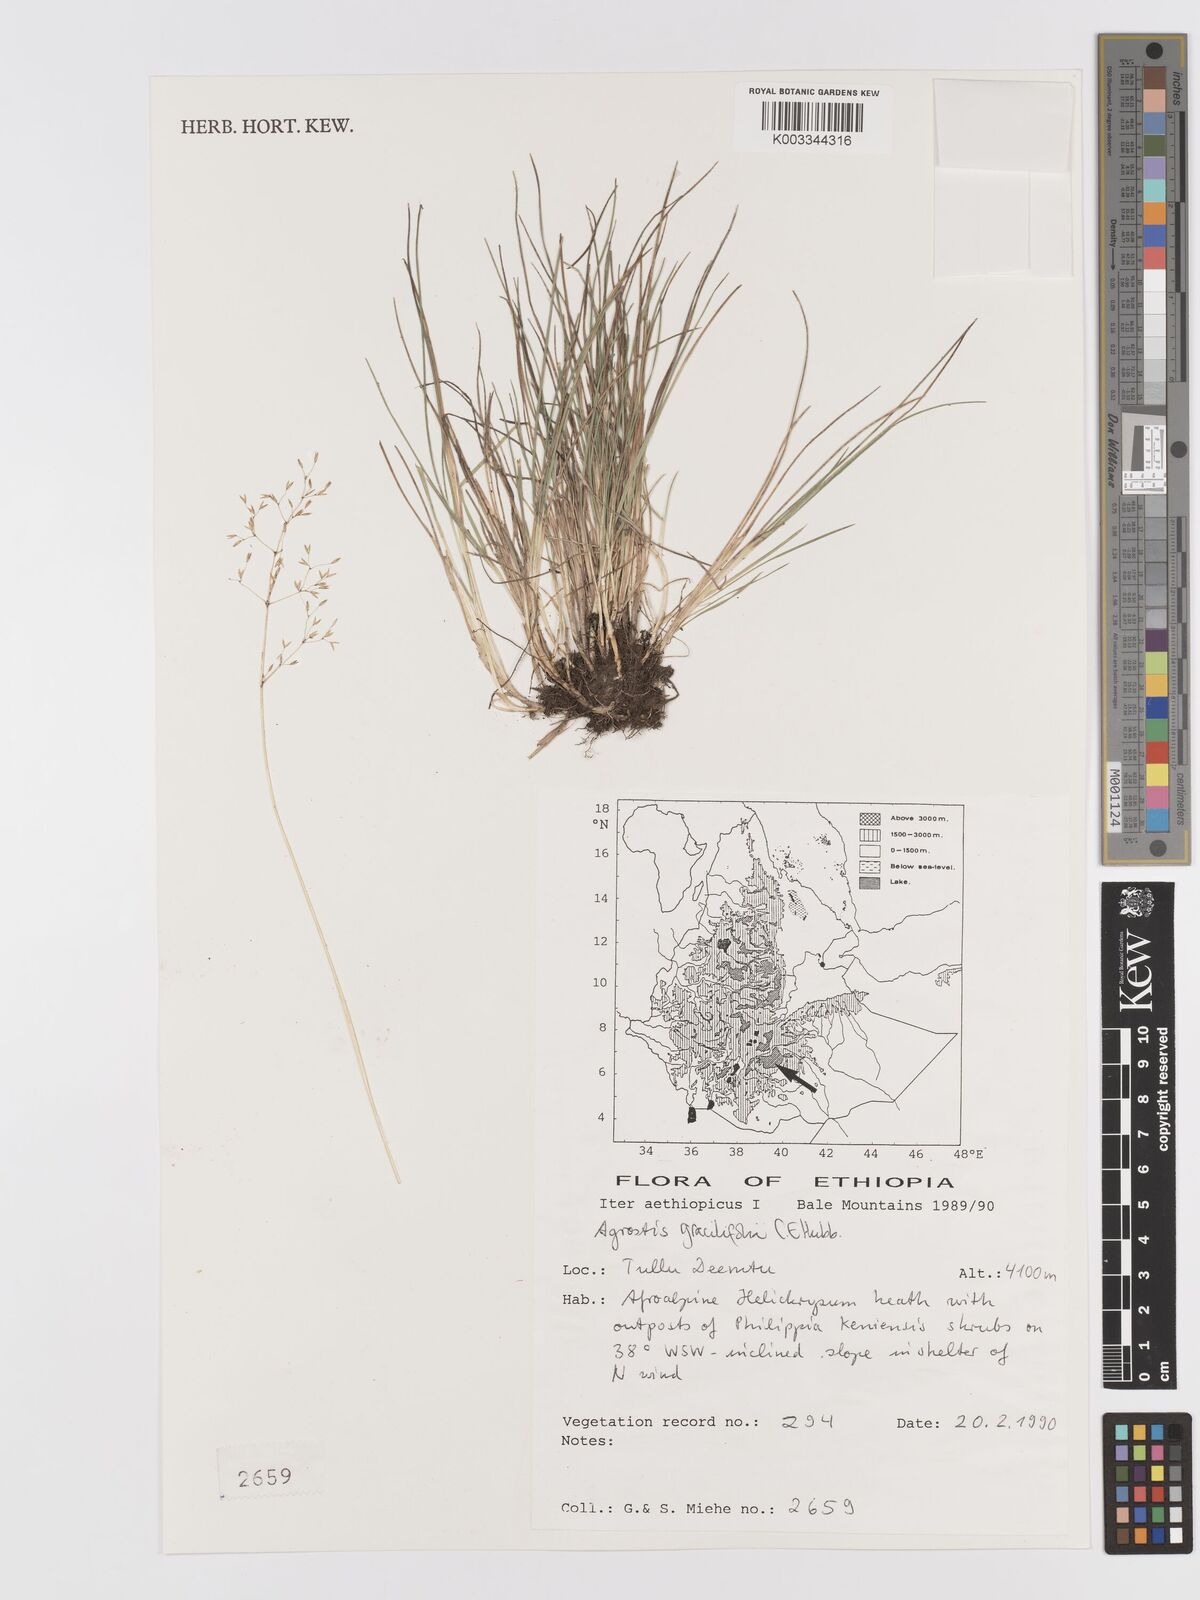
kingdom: Plantae
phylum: Tracheophyta
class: Liliopsida
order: Poales
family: Poaceae
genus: Agrostis
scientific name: Agrostis gracilifolia
